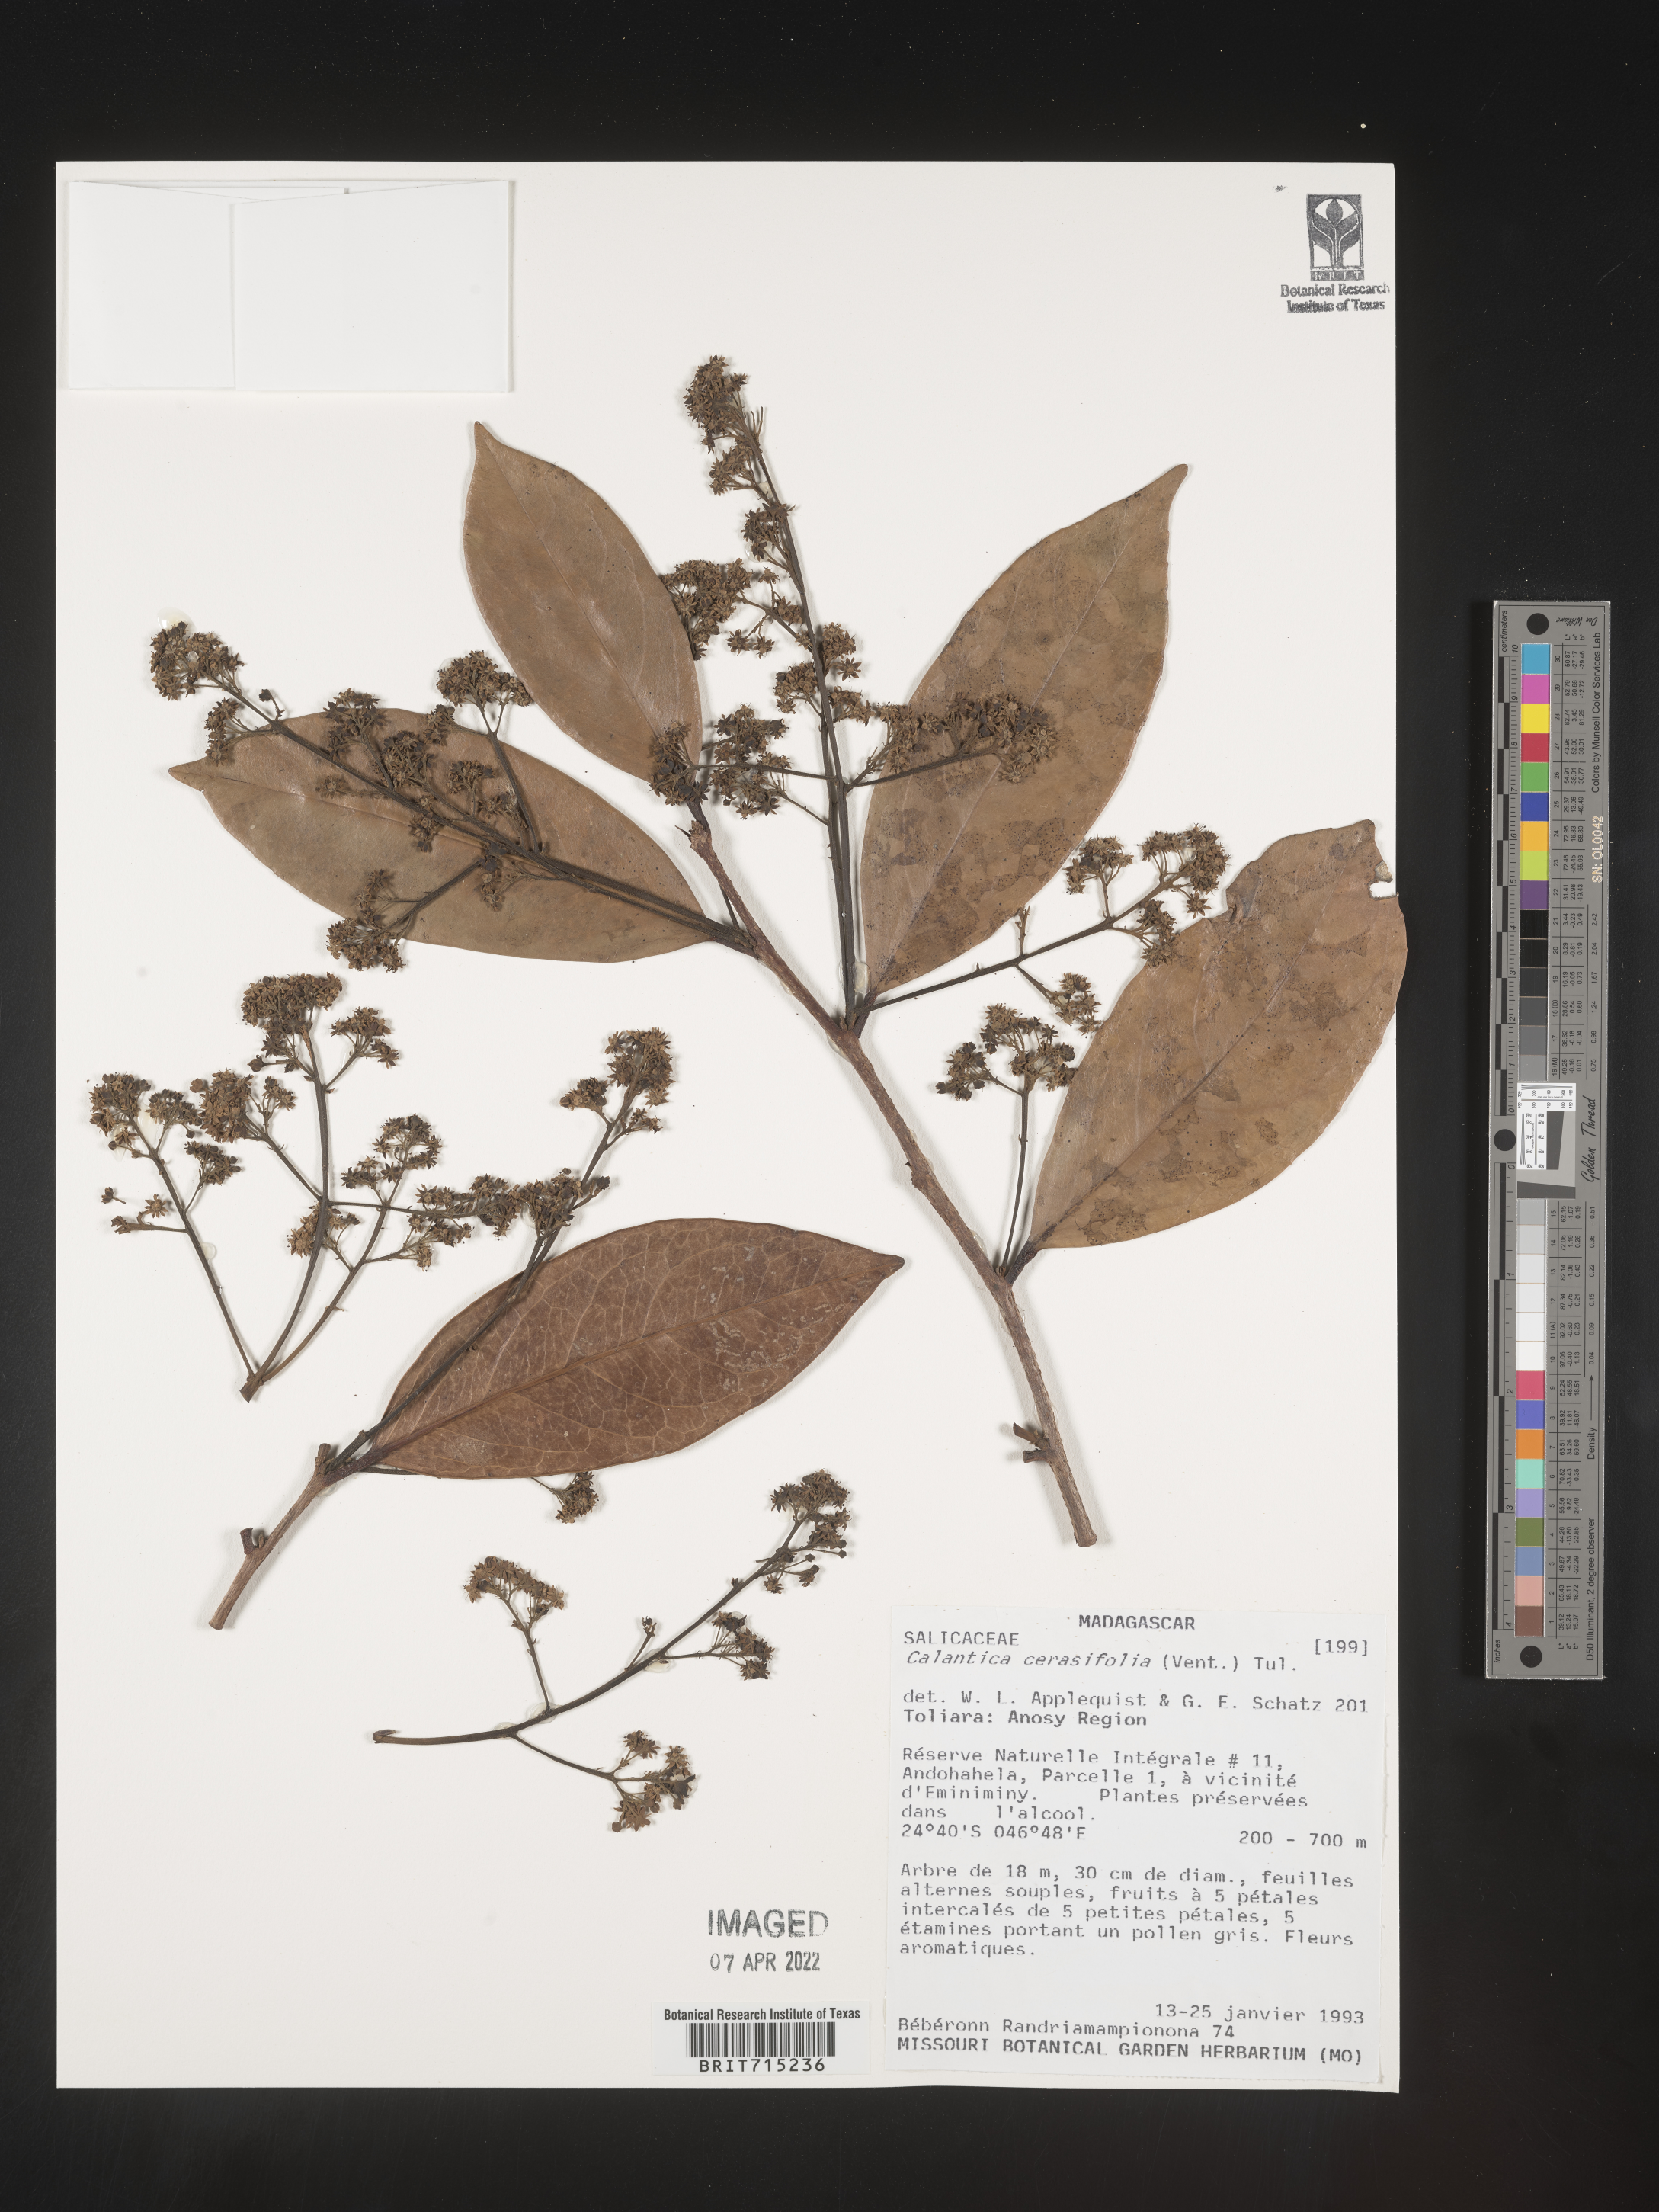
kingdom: Plantae
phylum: Tracheophyta
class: Magnoliopsida
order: Malpighiales
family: Salicaceae
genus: Calantica
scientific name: Calantica
